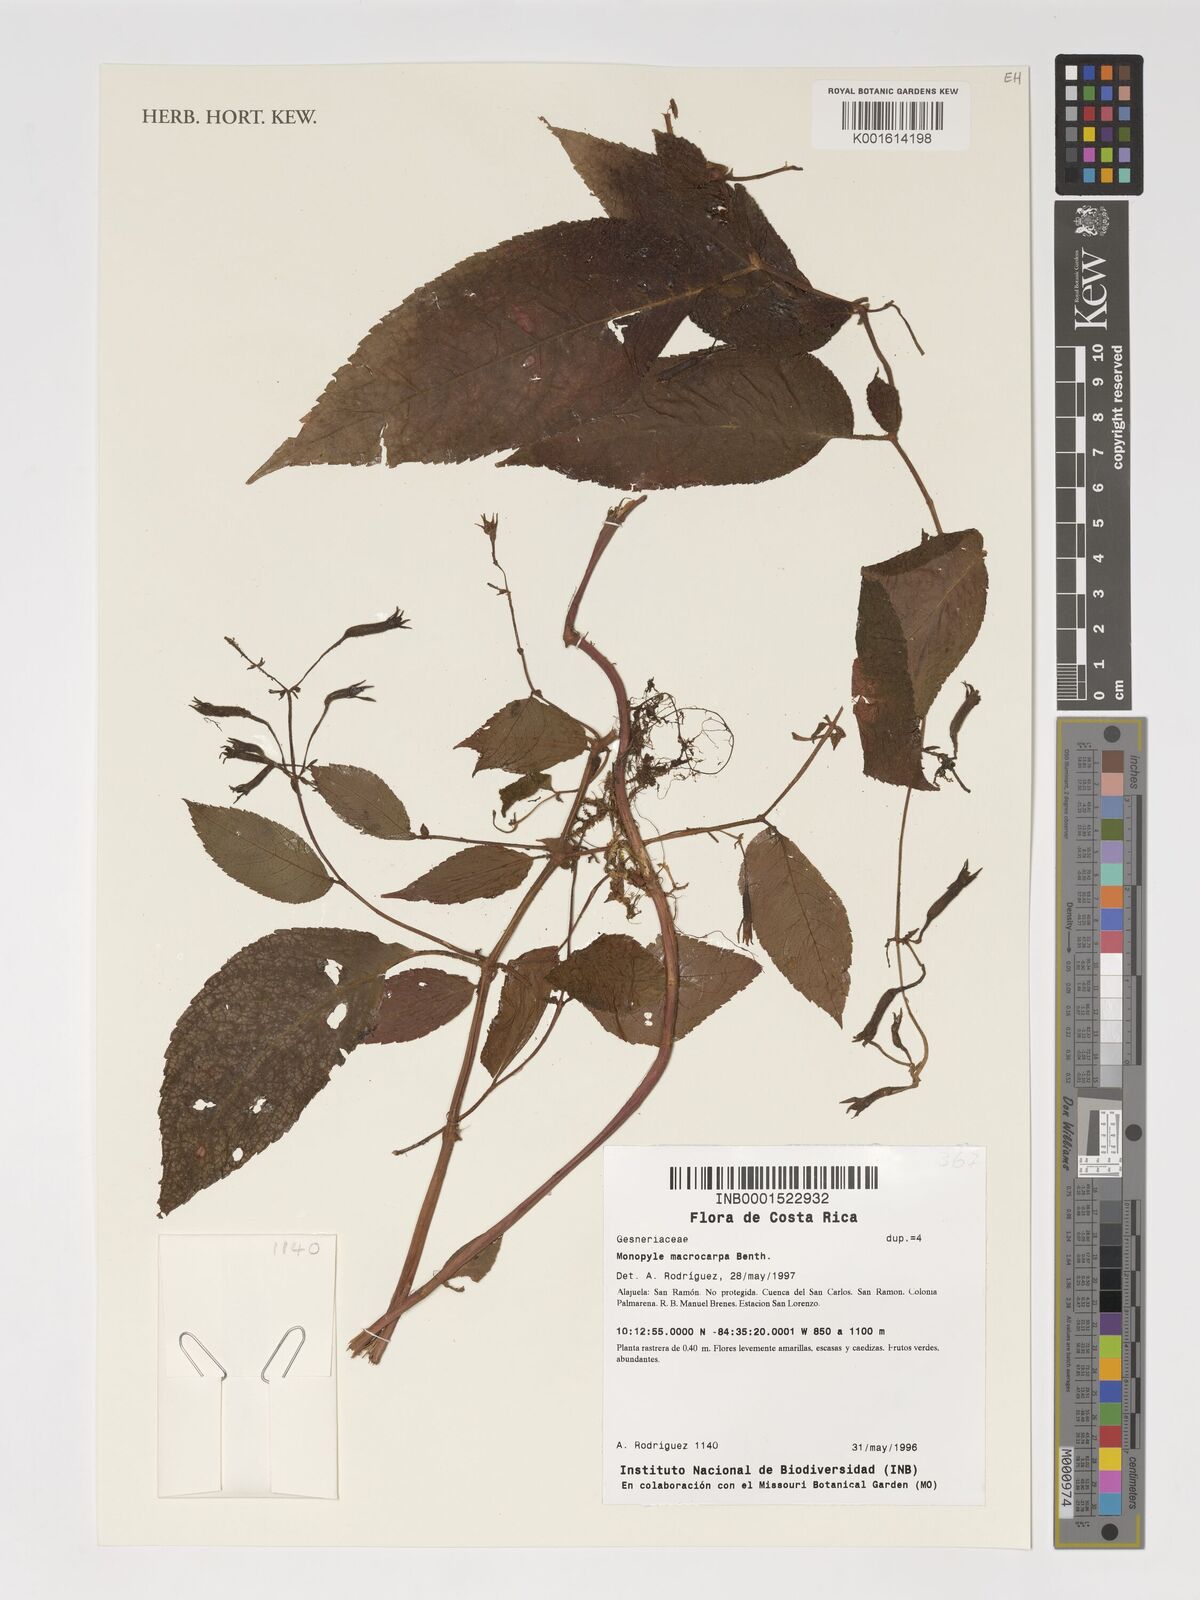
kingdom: Plantae
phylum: Tracheophyta
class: Magnoliopsida
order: Lamiales
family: Gesneriaceae
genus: Monopyle
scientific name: Monopyle macrocarpa
